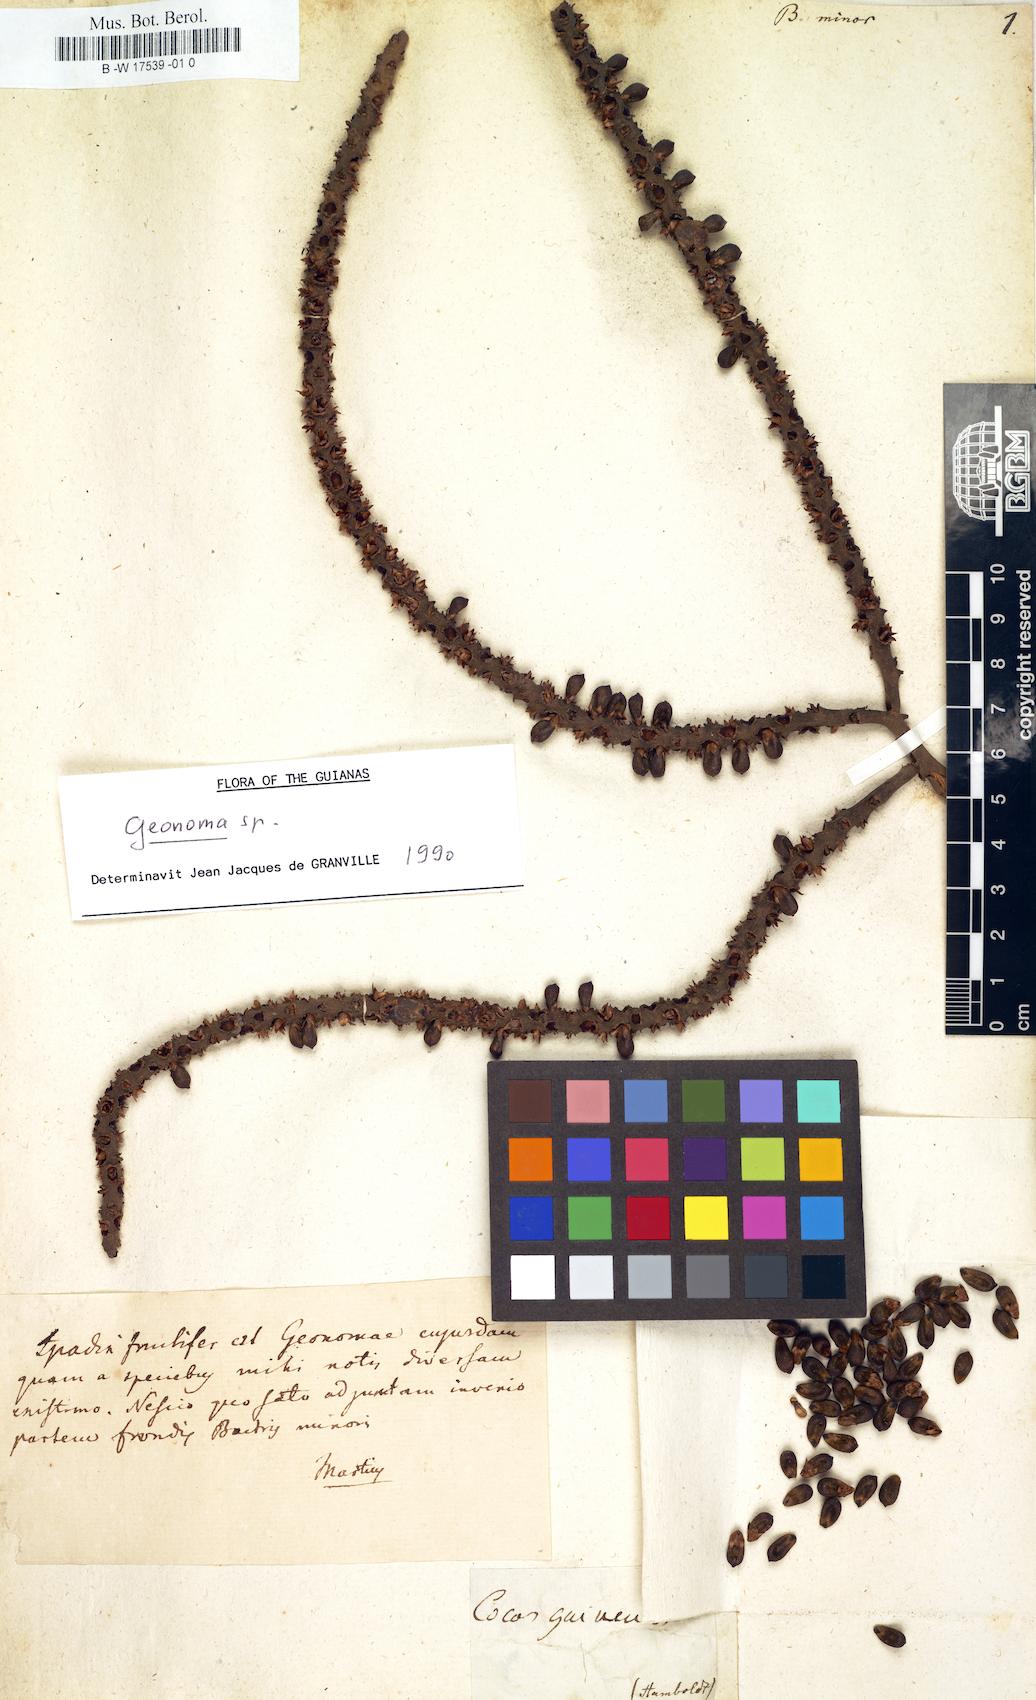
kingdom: Plantae
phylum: Tracheophyta
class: Liliopsida
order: Arecales
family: Arecaceae
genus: Bactris
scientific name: Bactris guineensis
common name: Tobago cane
